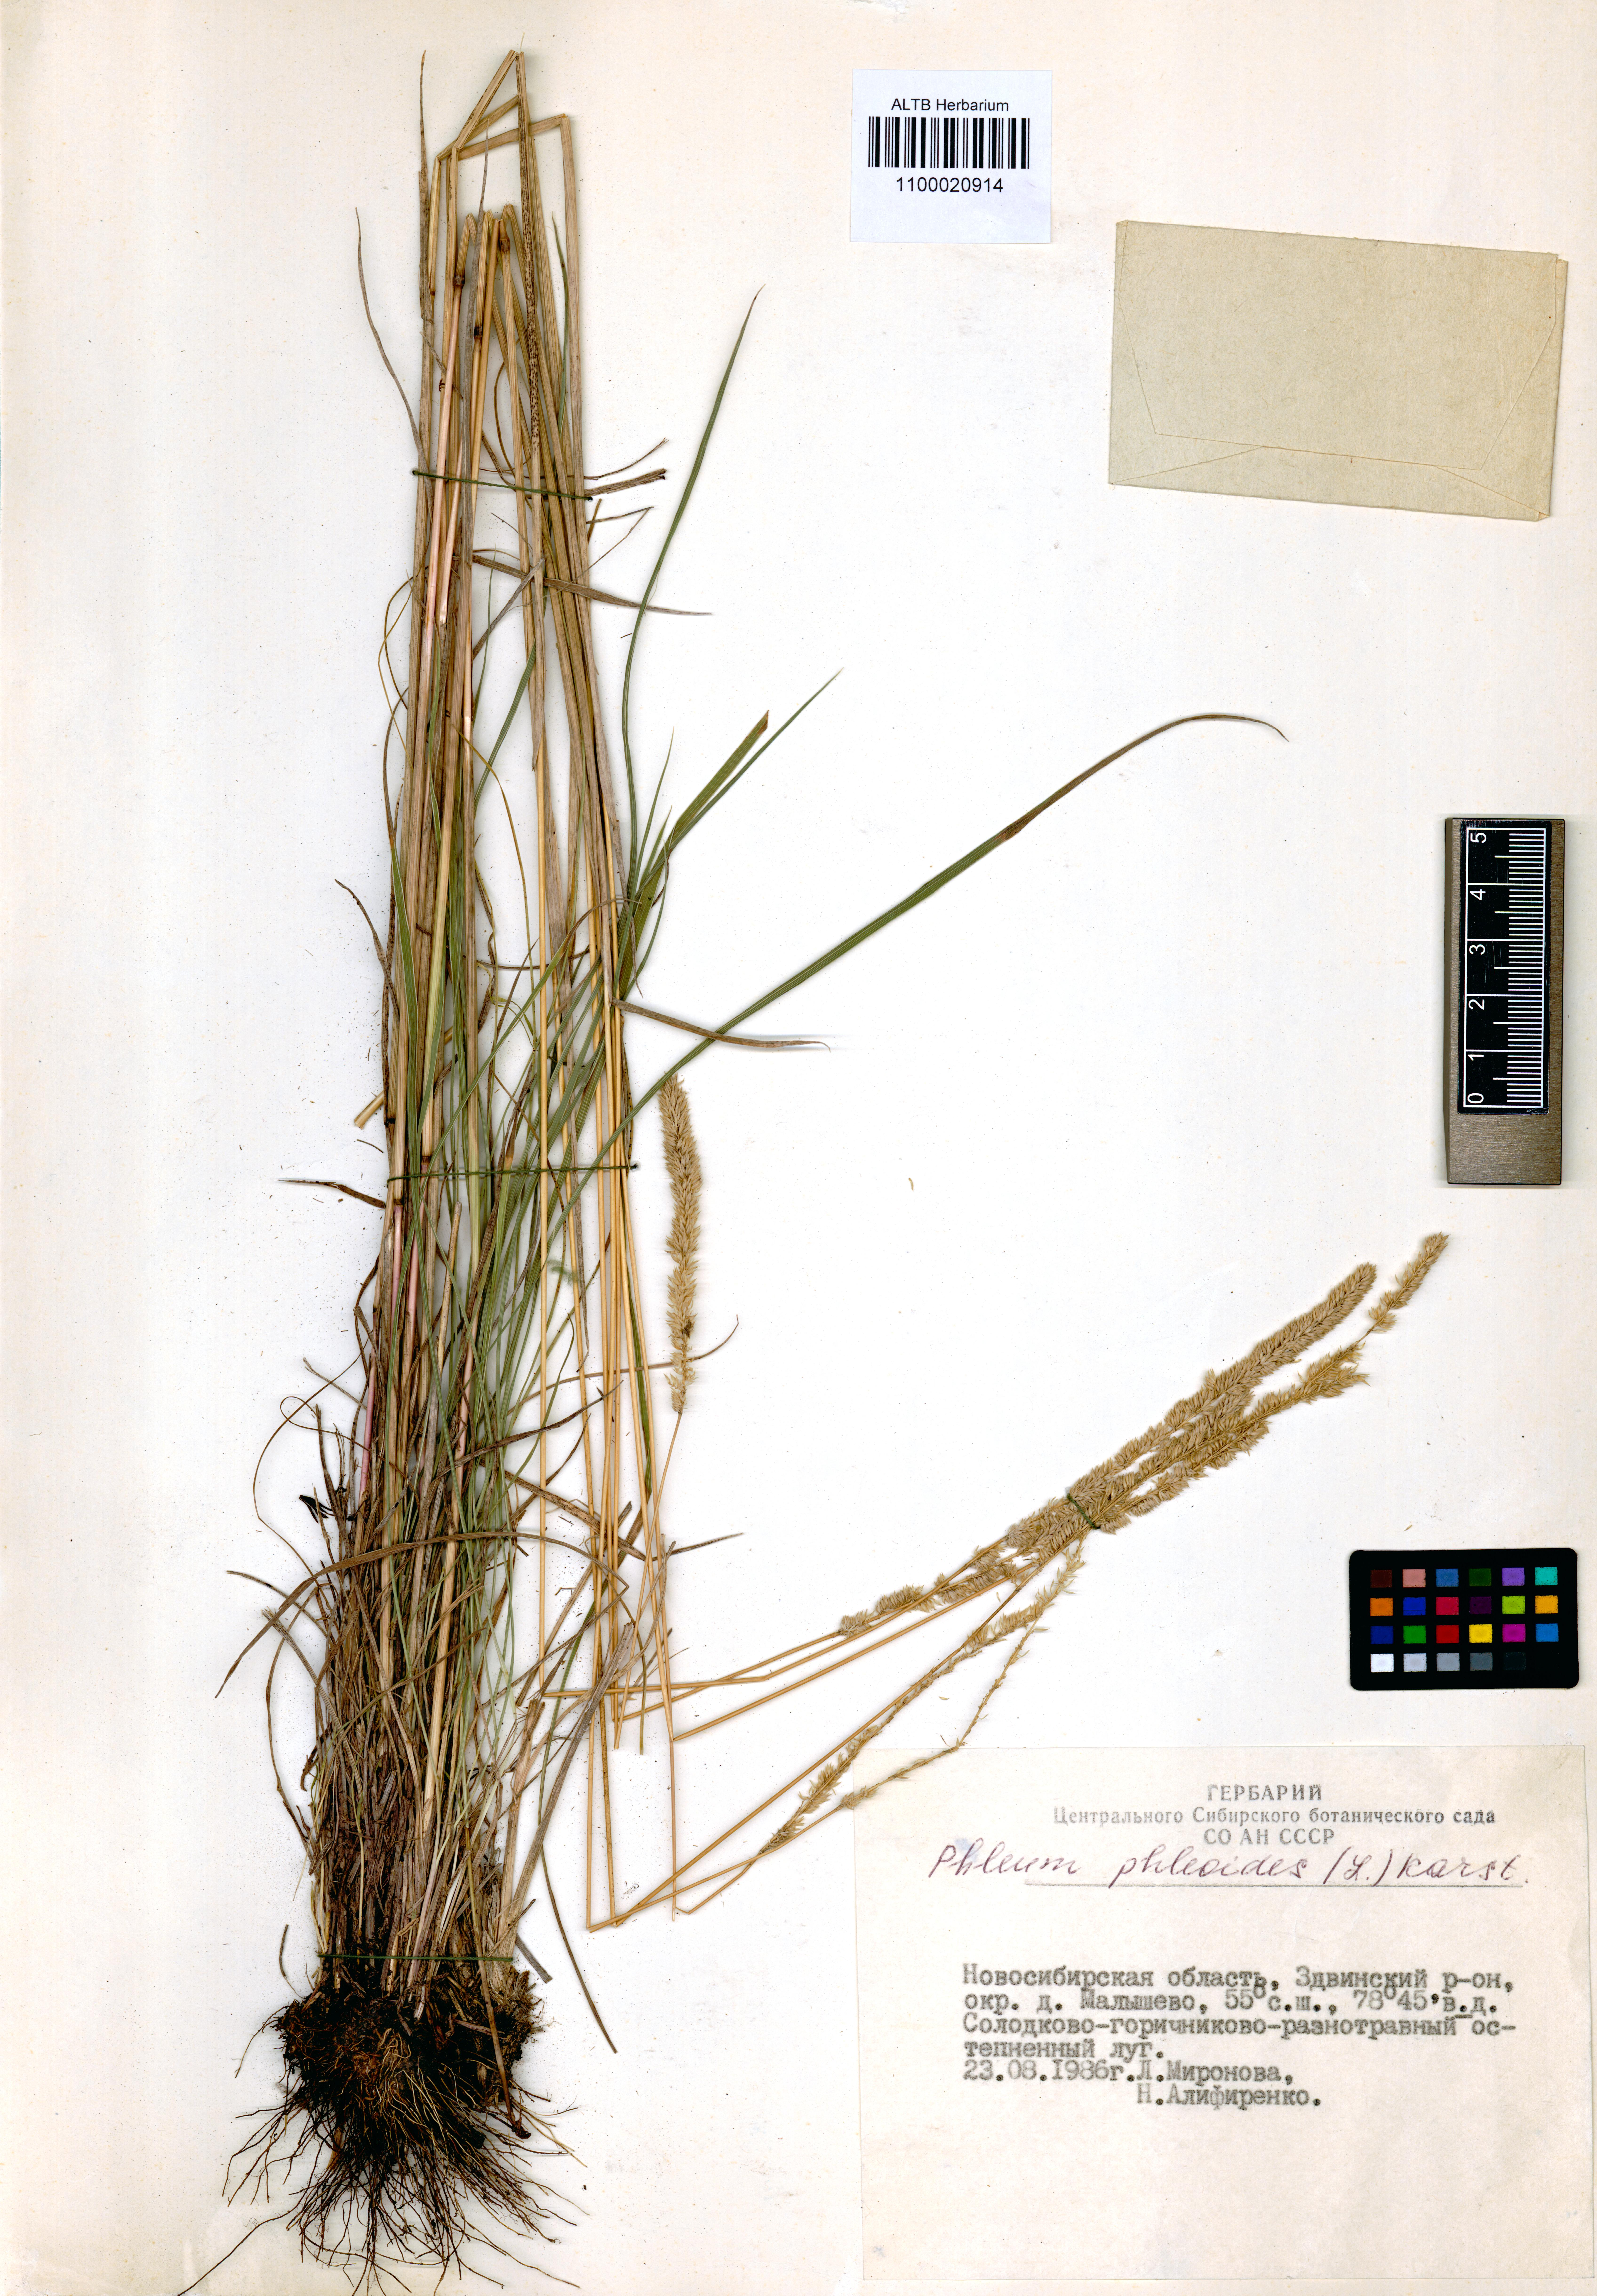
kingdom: Plantae
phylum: Tracheophyta
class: Liliopsida
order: Poales
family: Poaceae
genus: Phleum
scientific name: Phleum phleoides
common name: Purple-stem cat's-tail
